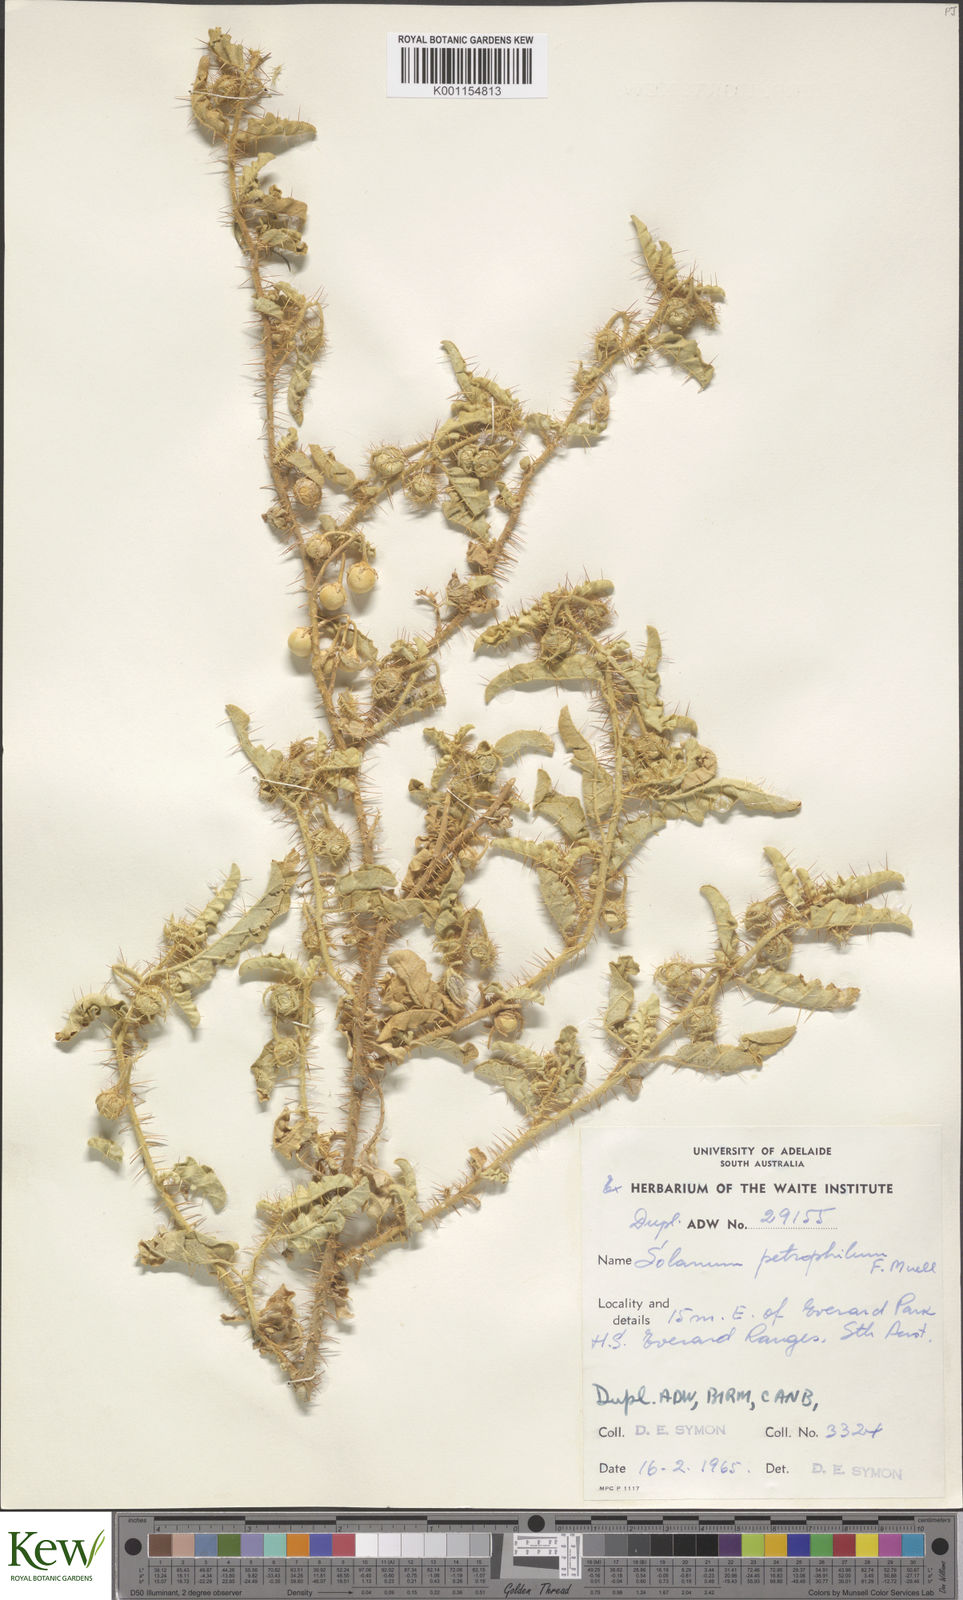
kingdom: Plantae
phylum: Tracheophyta
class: Magnoliopsida
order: Solanales
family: Solanaceae
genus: Solanum
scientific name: Solanum petrophilum
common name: Rock nightshade
